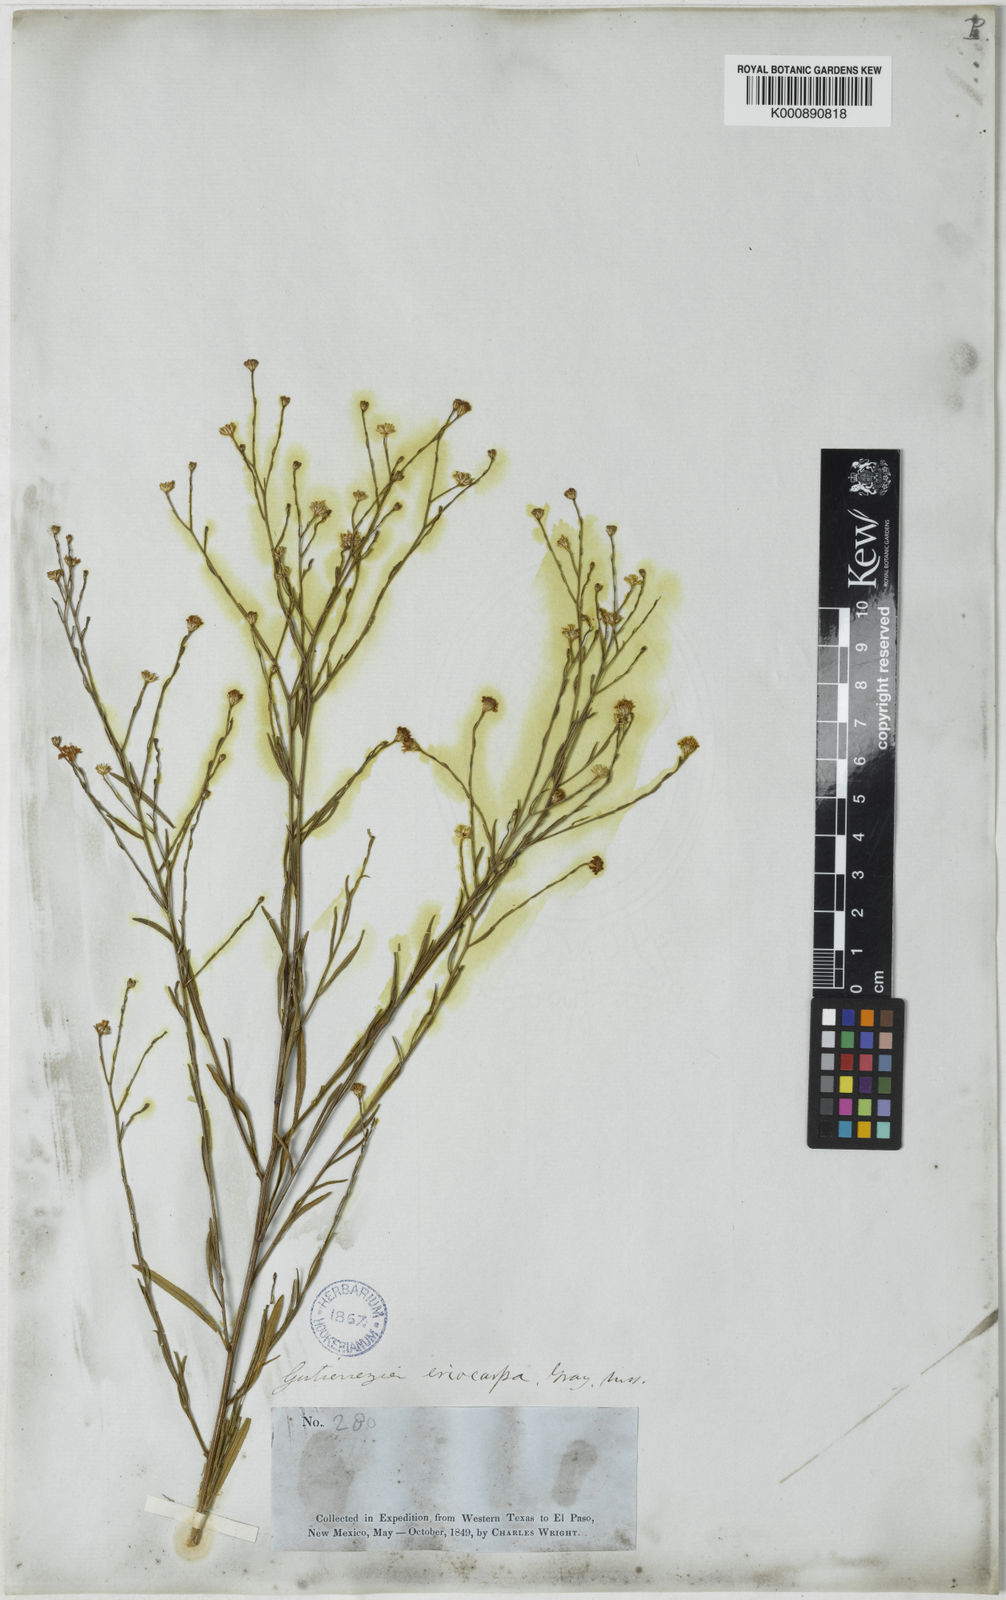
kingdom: Plantae
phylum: Tracheophyta
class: Magnoliopsida
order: Asterales
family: Asteraceae
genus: Gutierrezia
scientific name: Gutierrezia sphaerocephala
